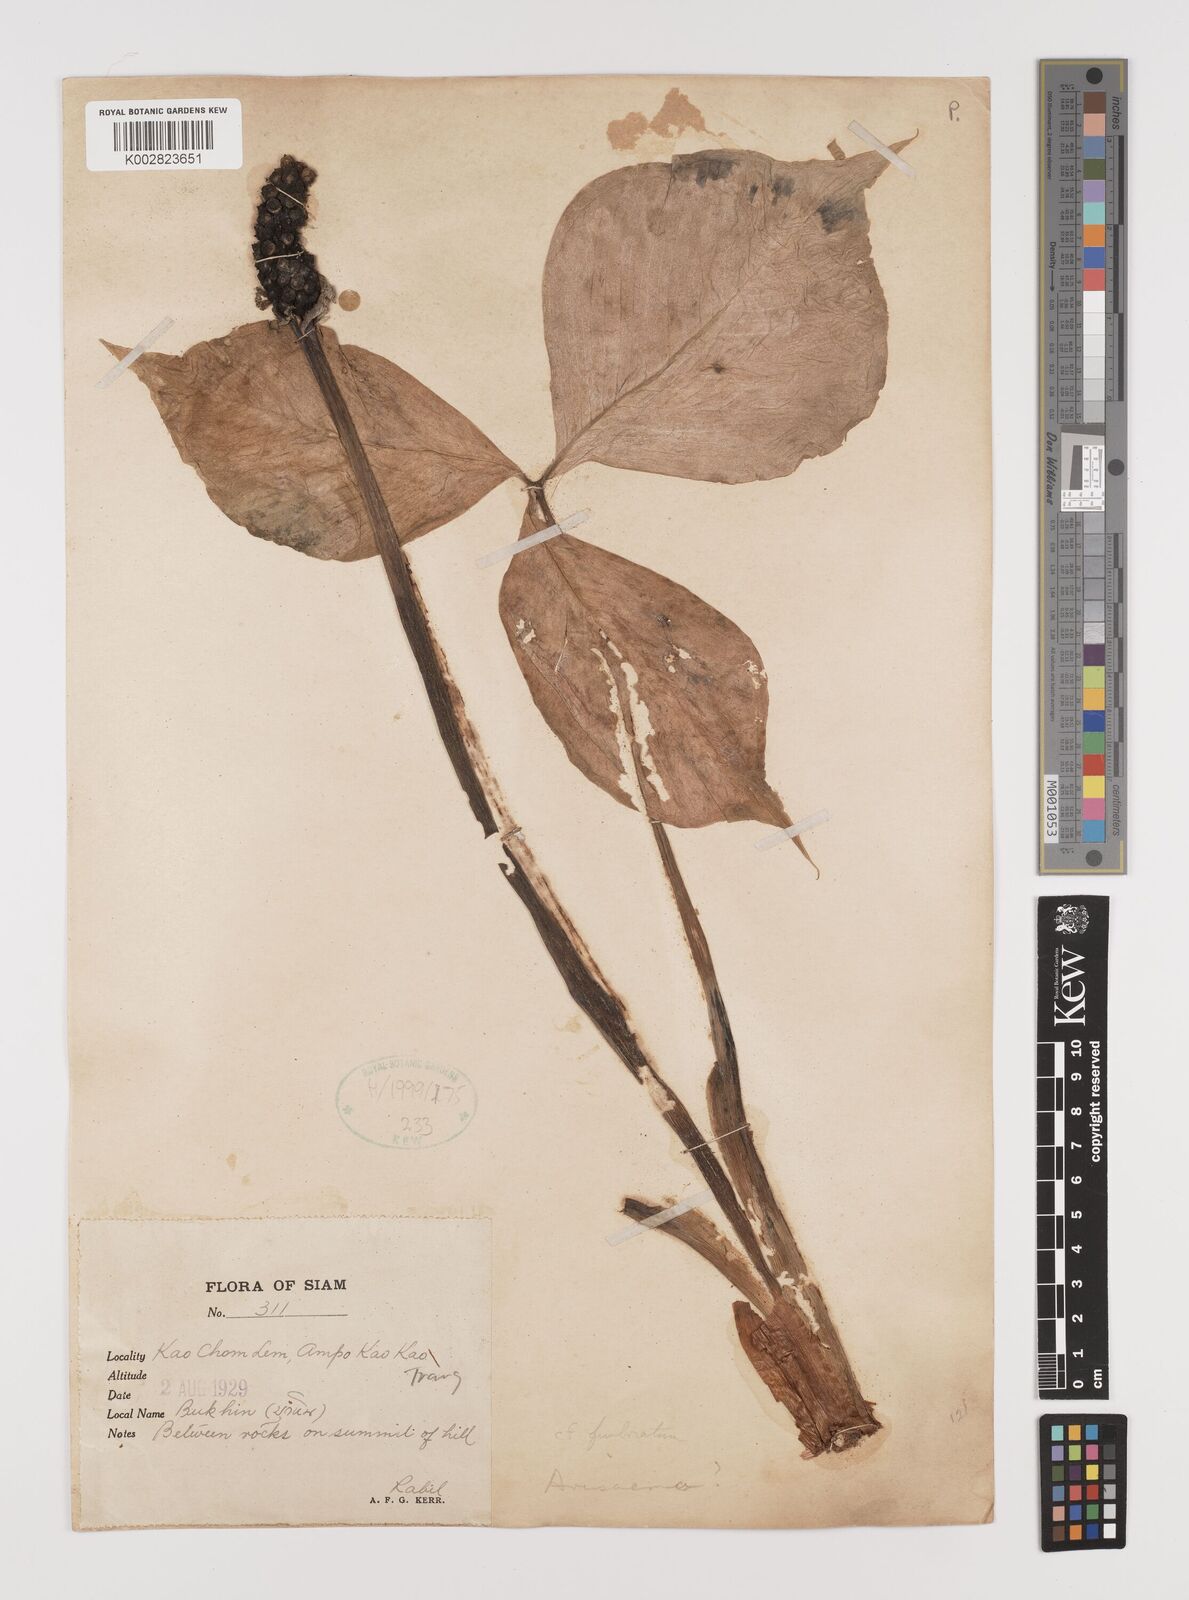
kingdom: Plantae
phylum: Tracheophyta
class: Liliopsida
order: Alismatales
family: Araceae
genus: Arisaema
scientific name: Arisaema
